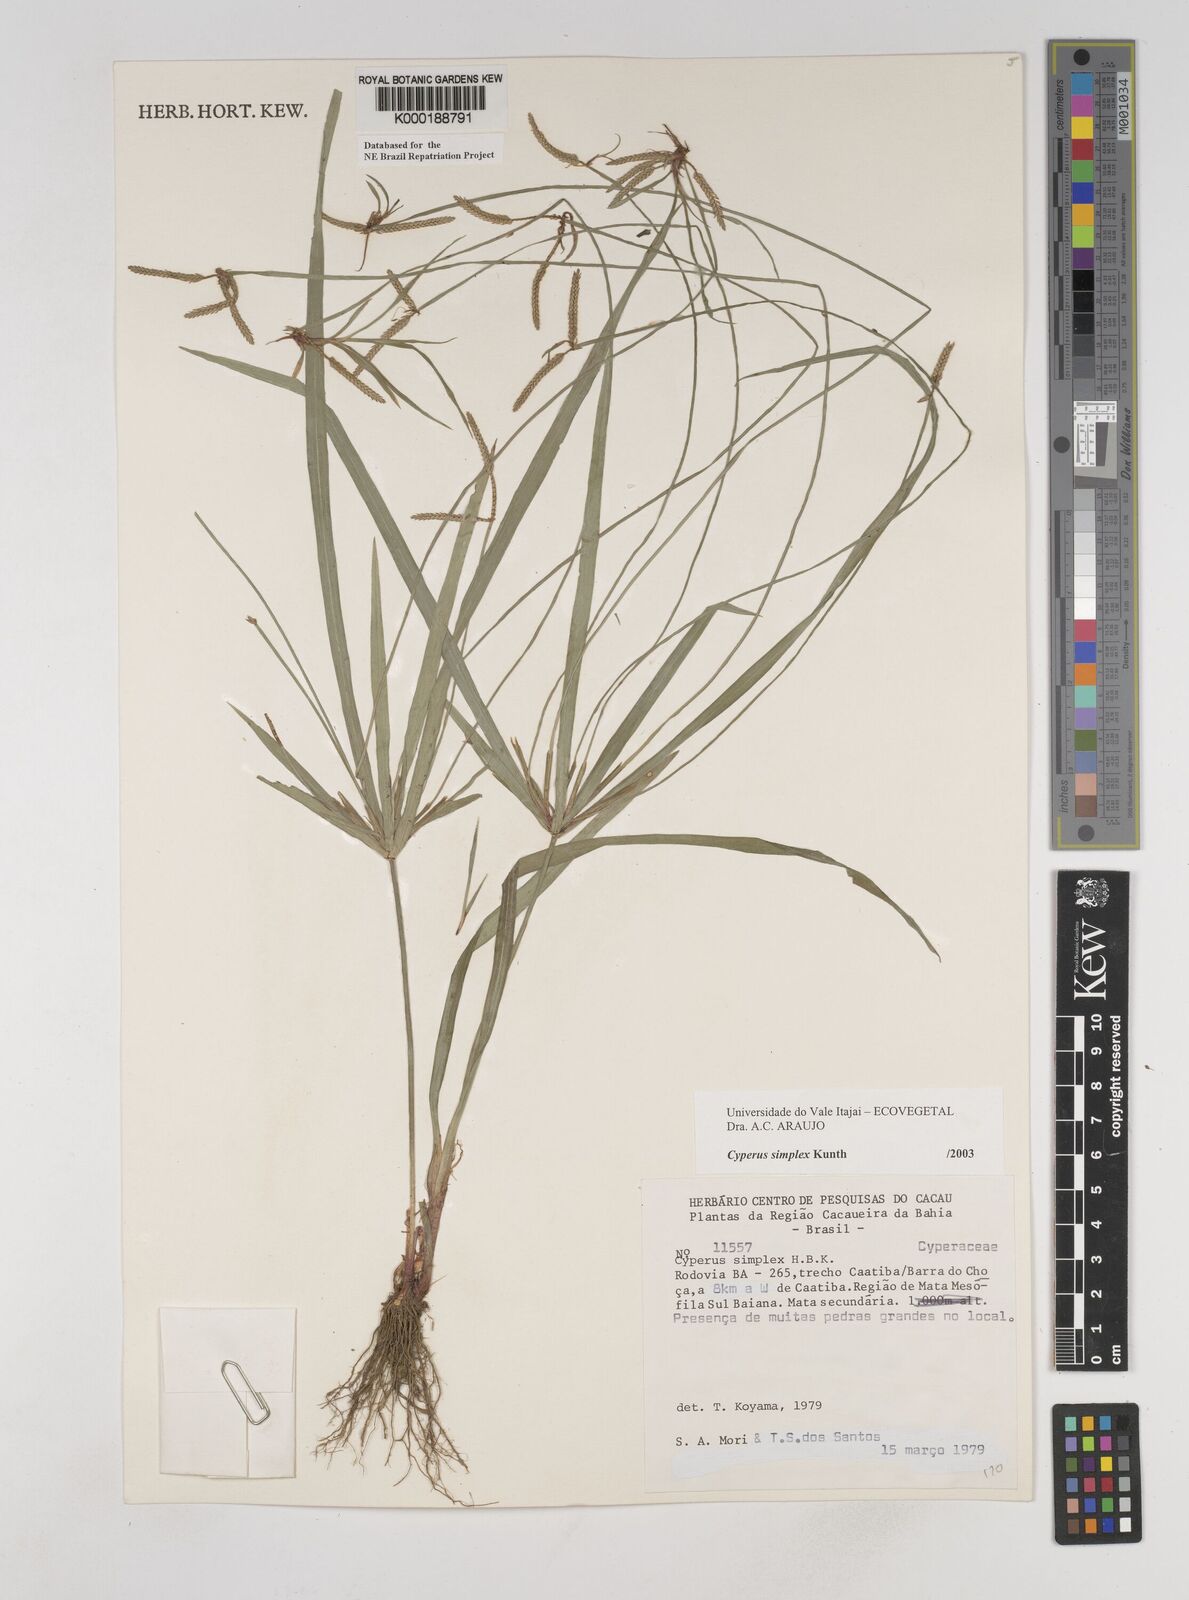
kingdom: Plantae
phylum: Tracheophyta
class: Liliopsida
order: Poales
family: Cyperaceae
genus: Cyperus
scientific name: Cyperus simplex
